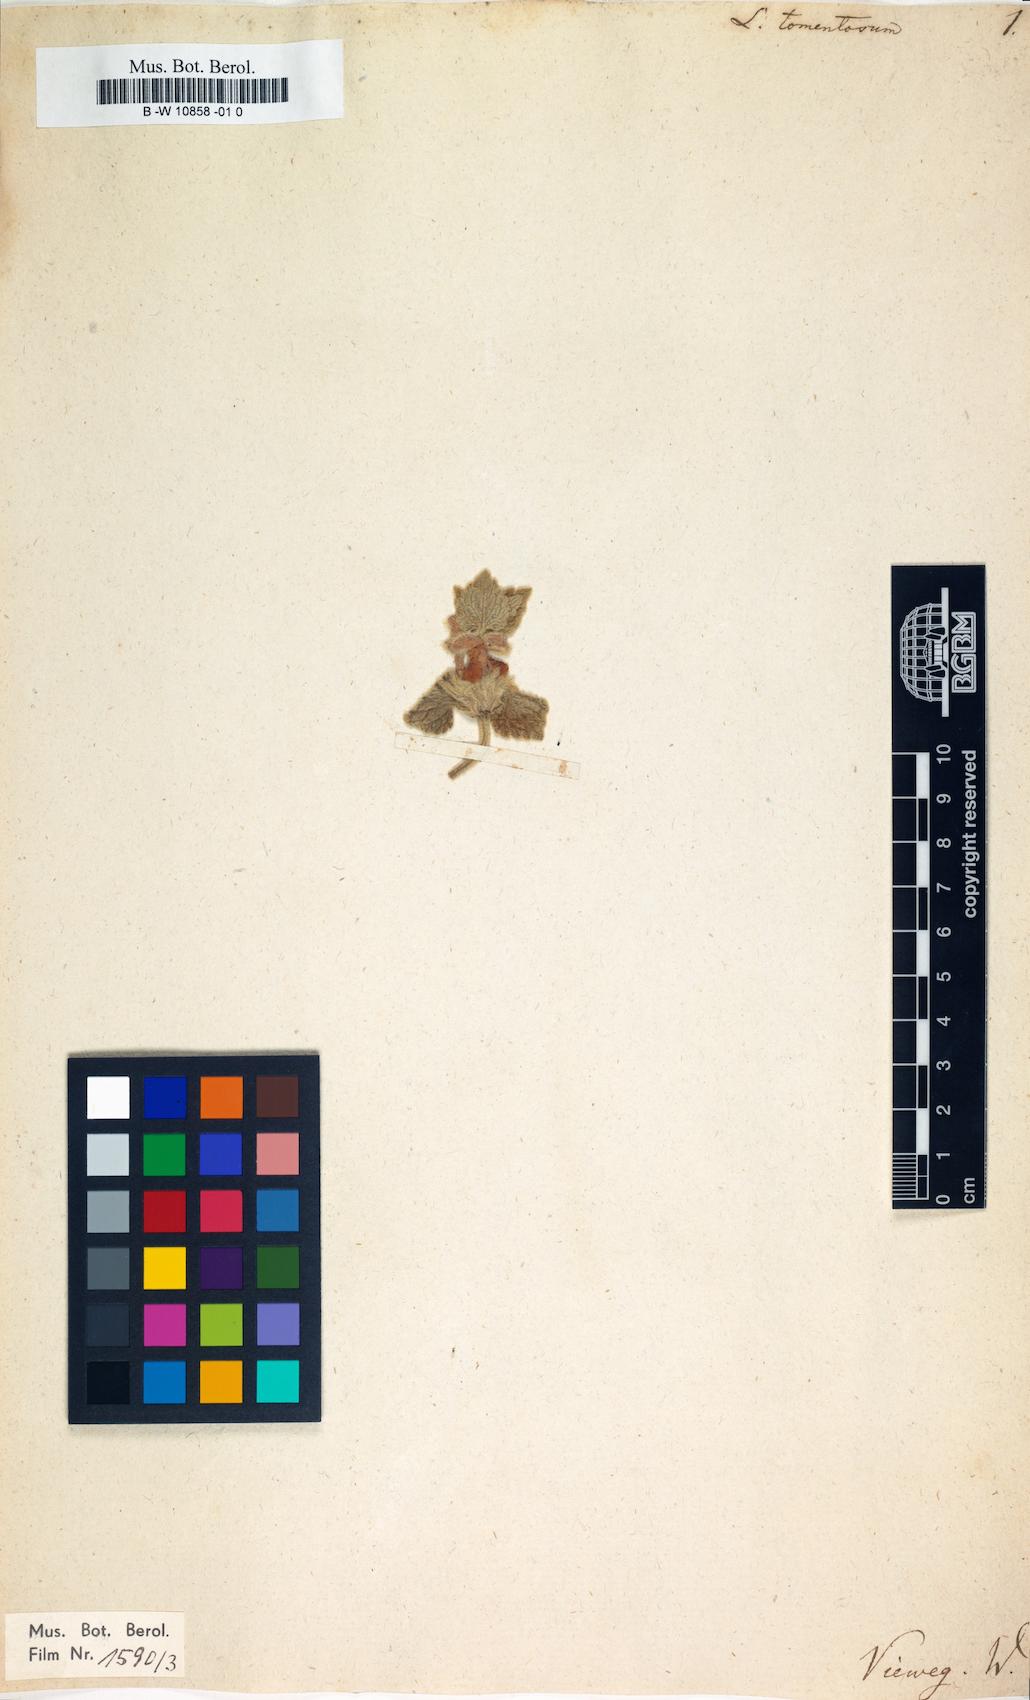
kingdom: Plantae
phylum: Tracheophyta
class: Magnoliopsida
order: Lamiales
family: Lamiaceae
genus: Lamium
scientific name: Lamium tomentosum
